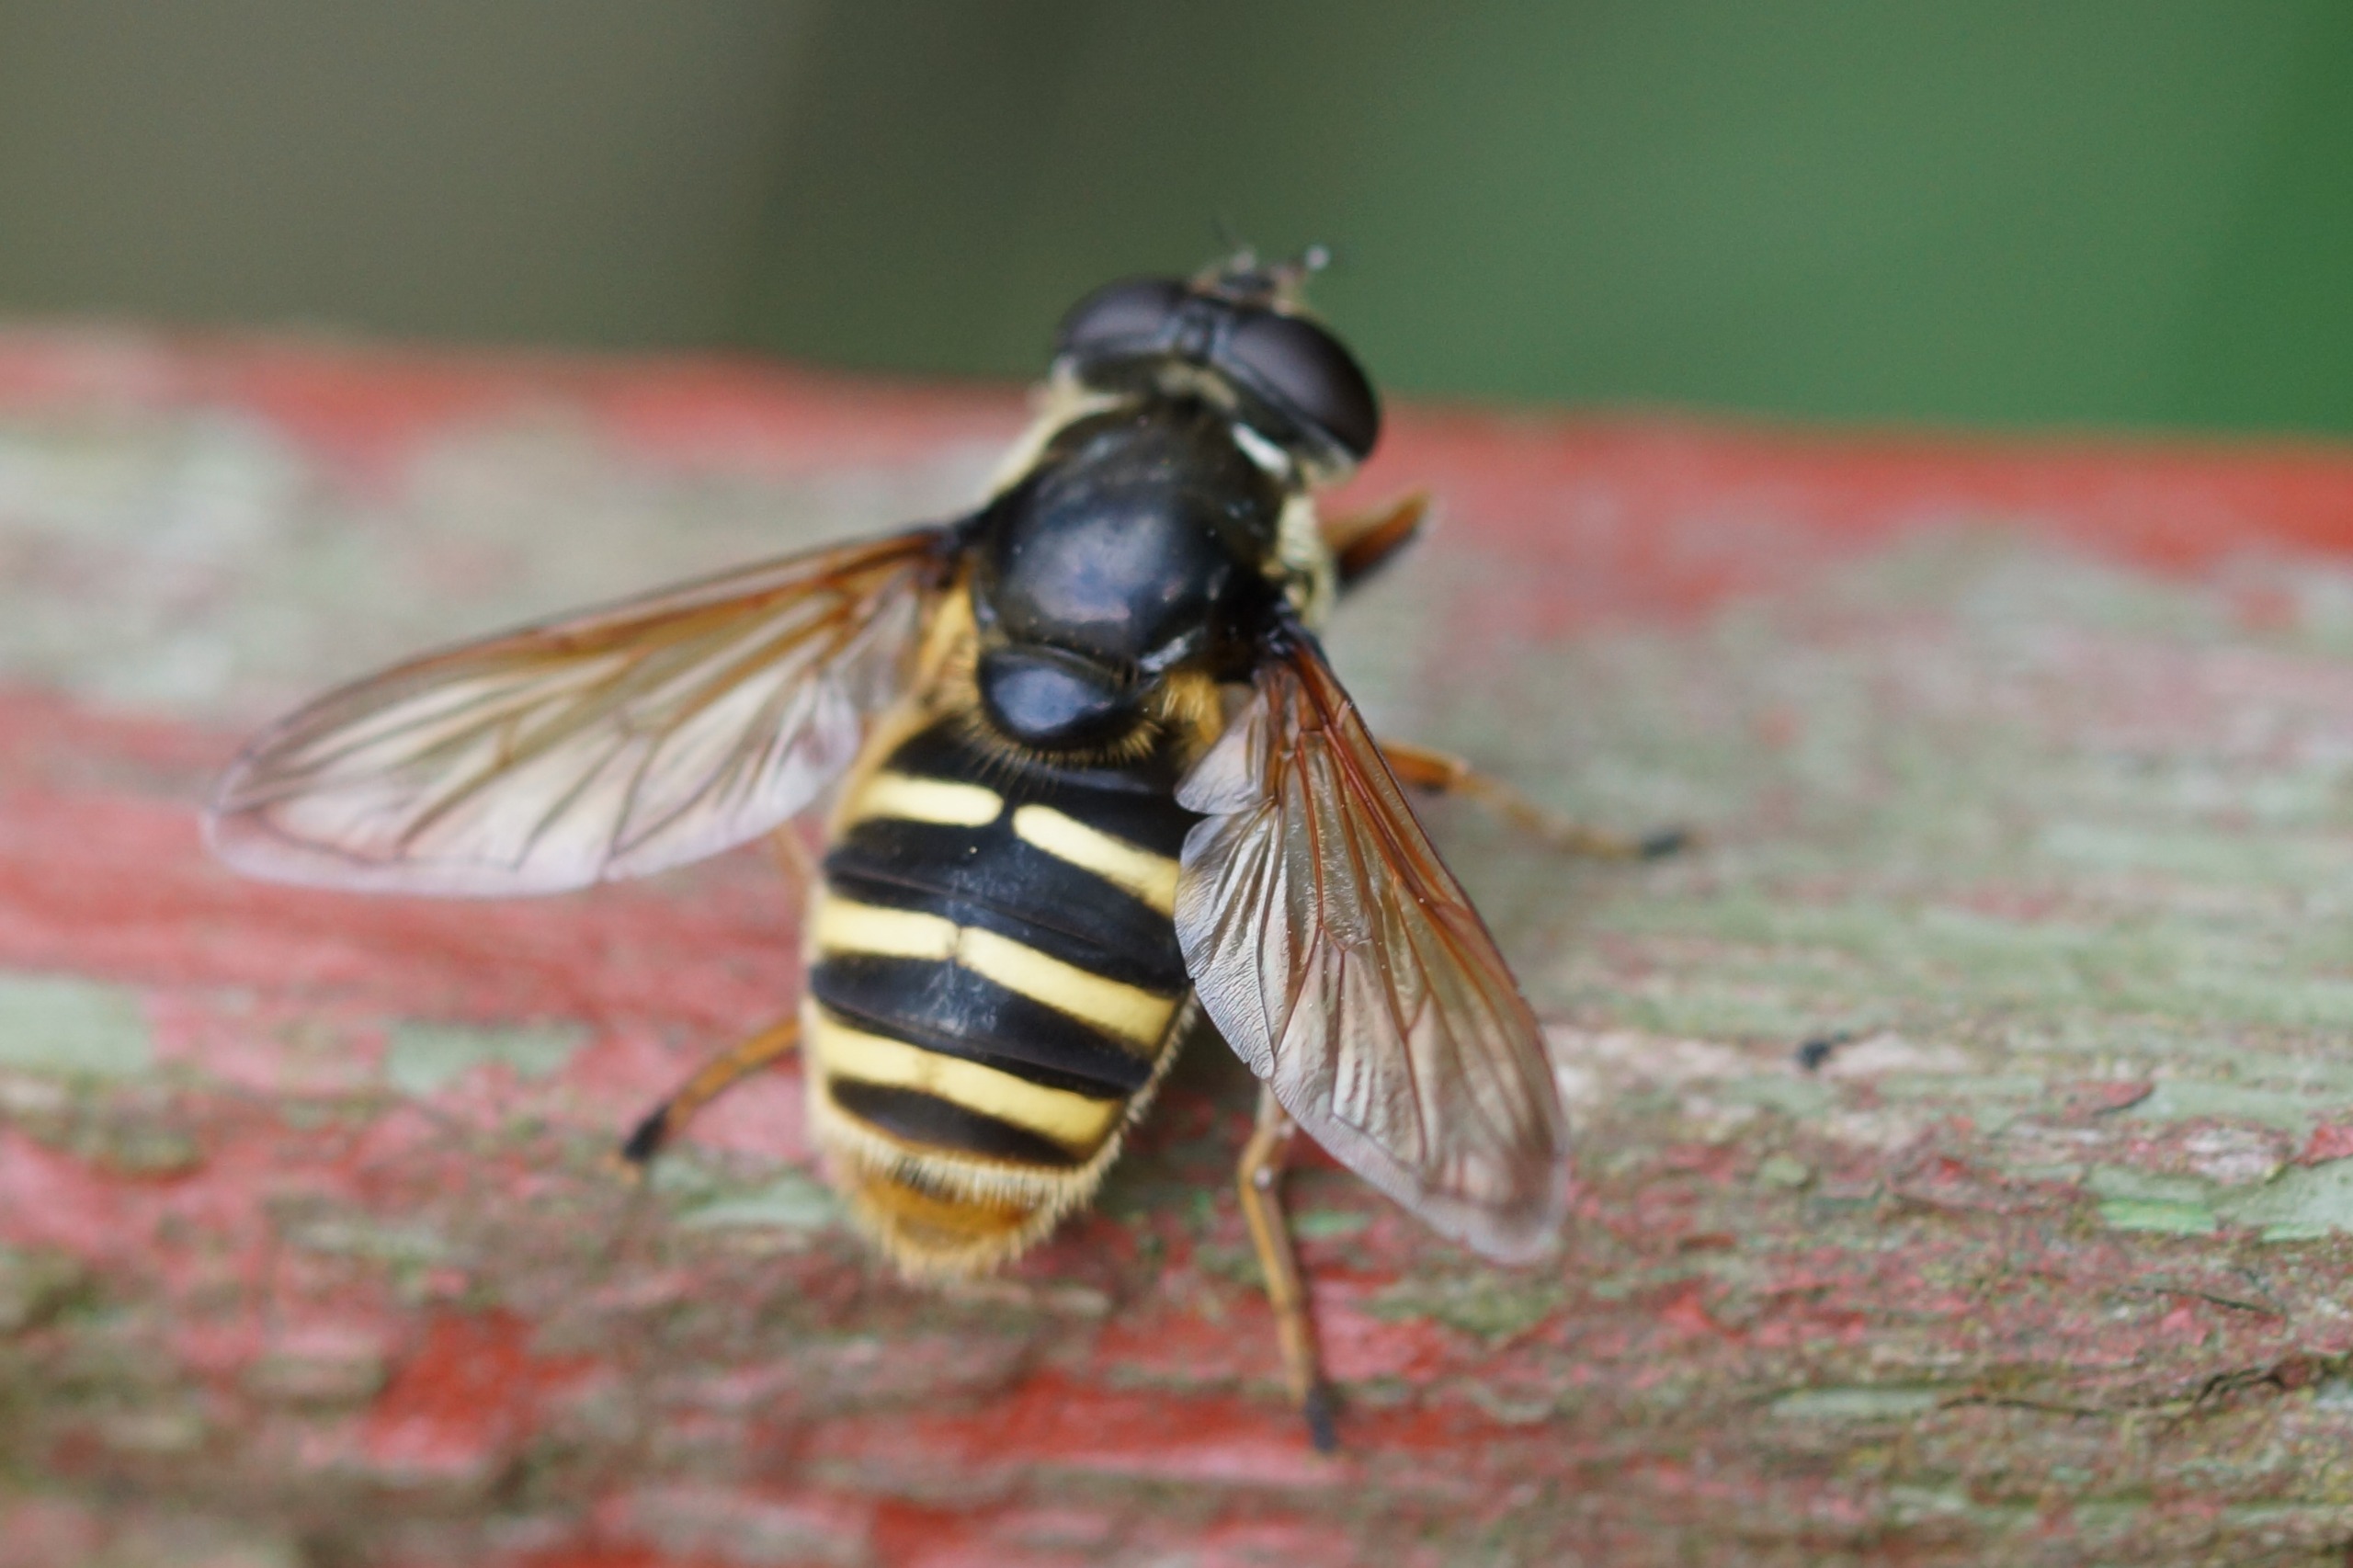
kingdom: Animalia
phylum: Arthropoda
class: Insecta
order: Diptera
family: Syrphidae
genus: Sericomyia
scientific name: Sericomyia silentis
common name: Tørve-silkesvirreflue
